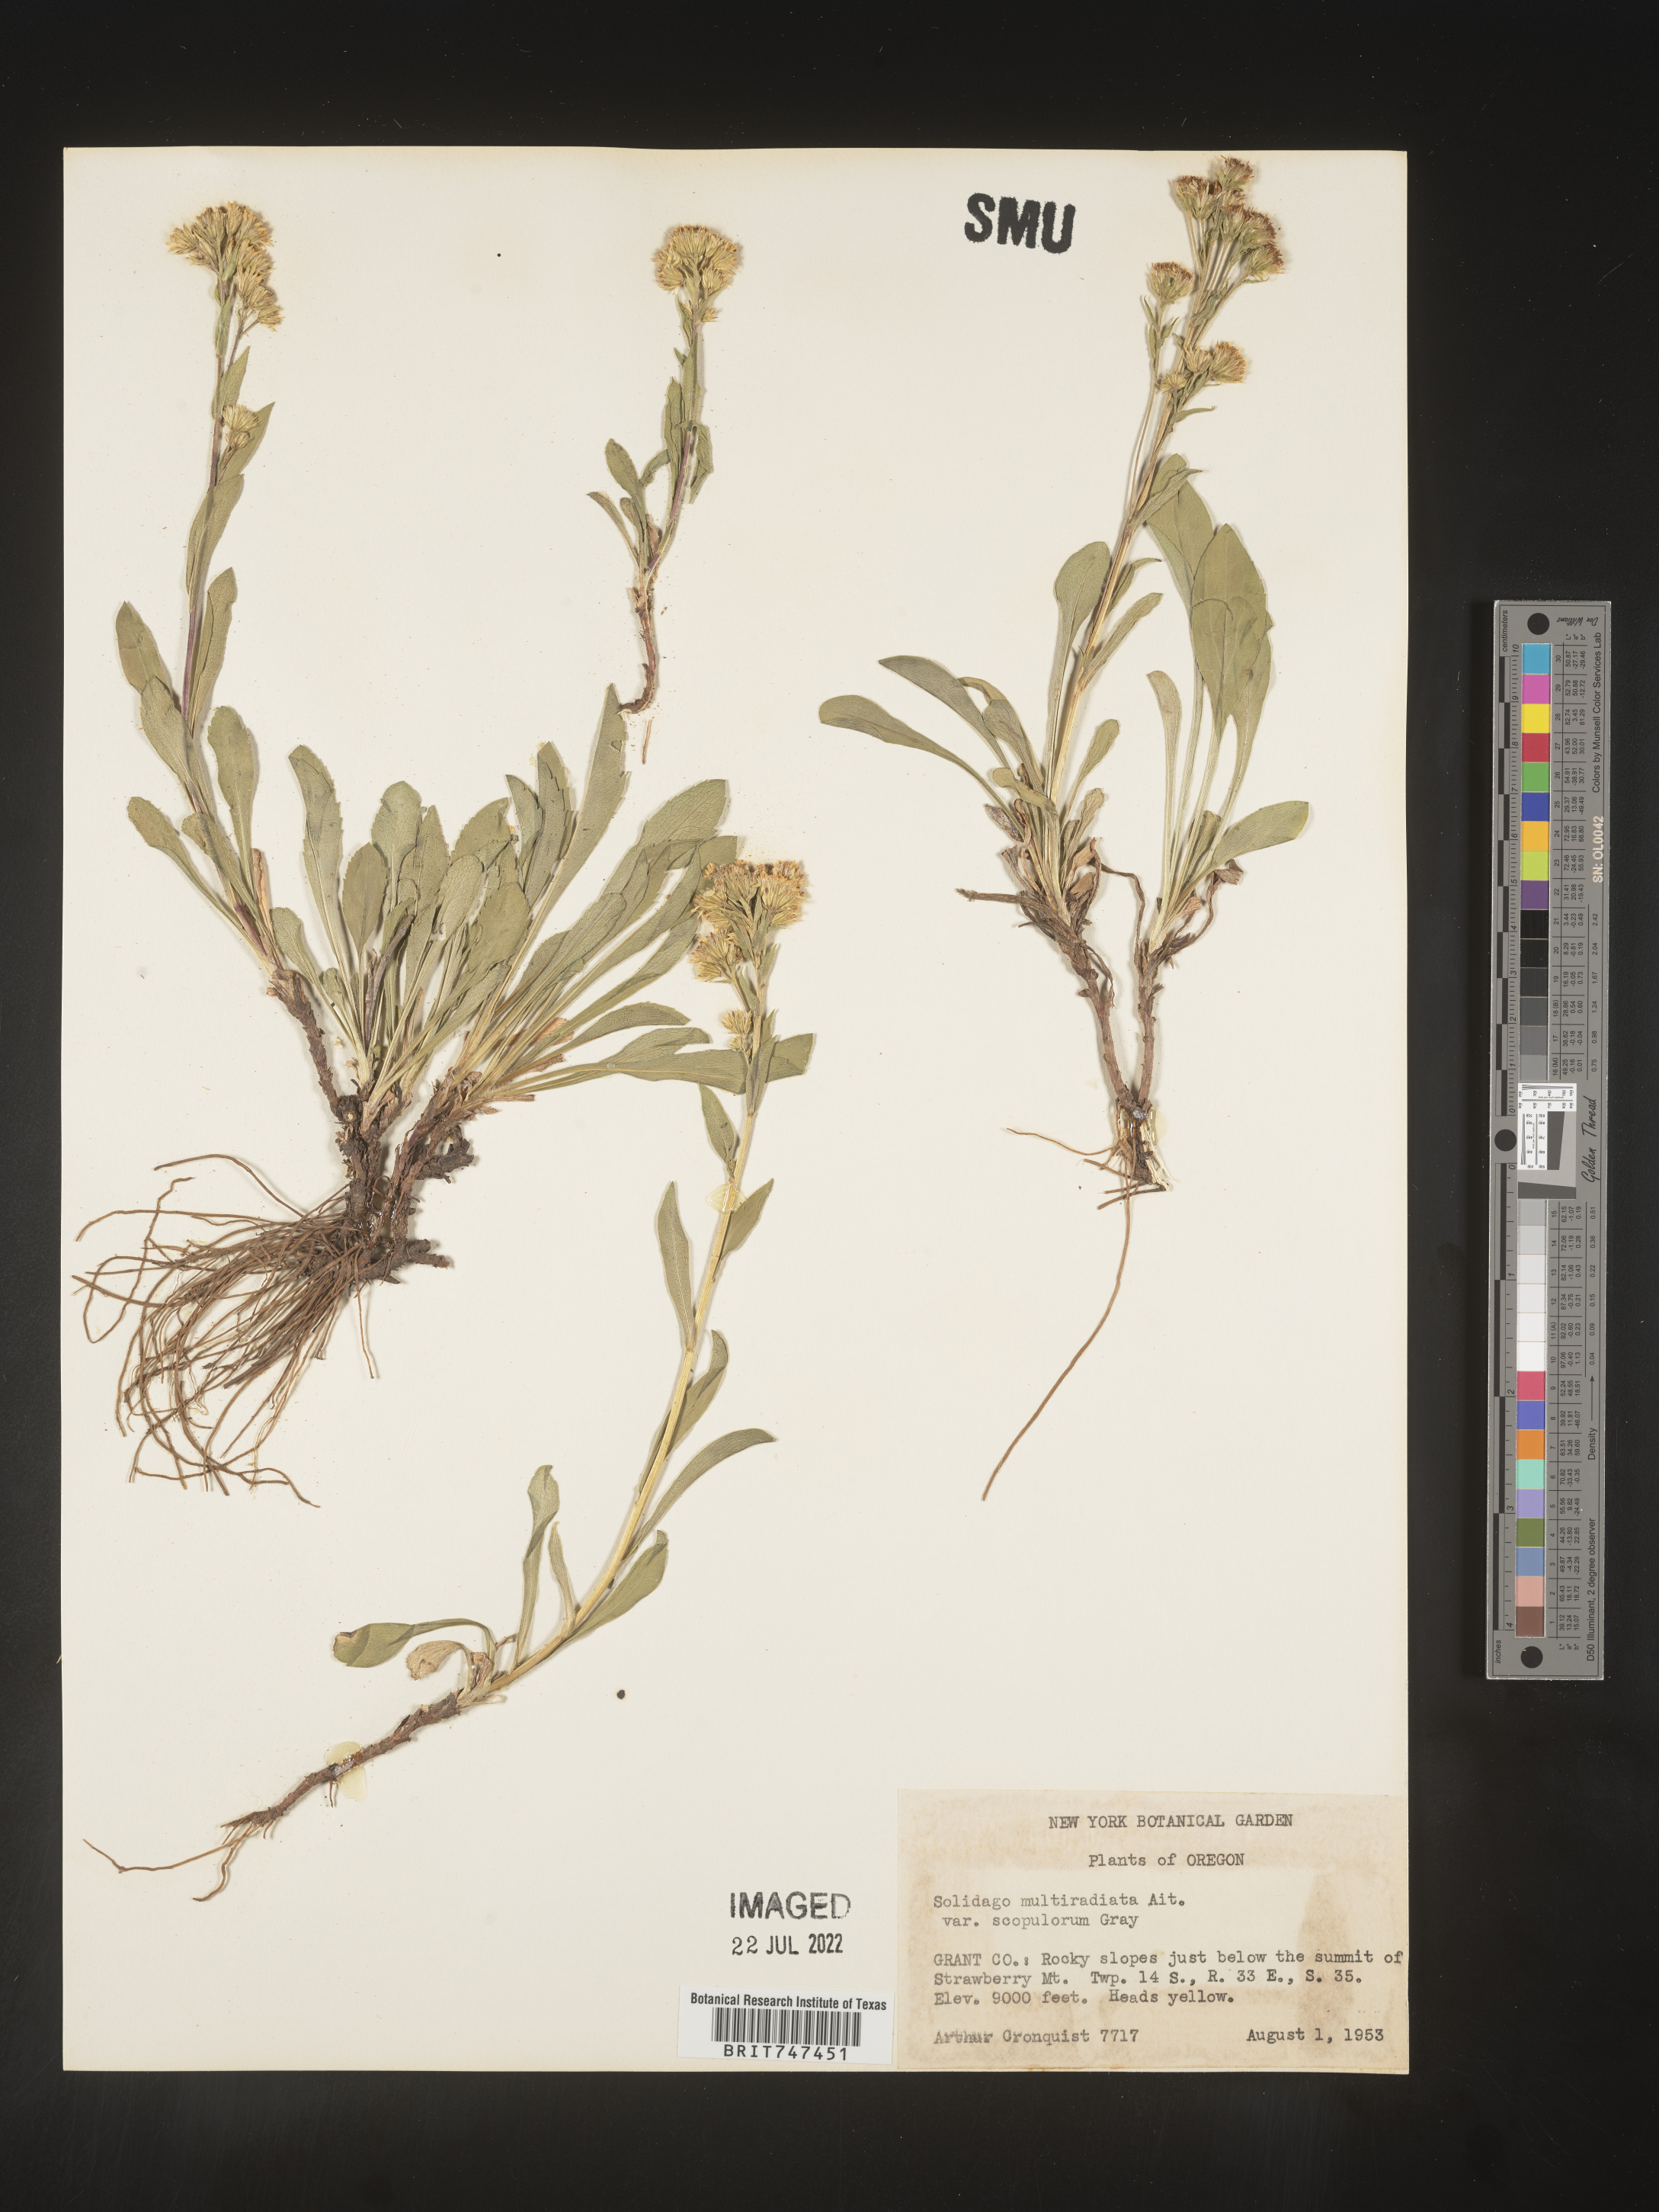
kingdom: Plantae
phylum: Tracheophyta
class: Magnoliopsida
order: Asterales
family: Asteraceae
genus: Solidago
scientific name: Solidago multiradiata
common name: Northern goldenrod
